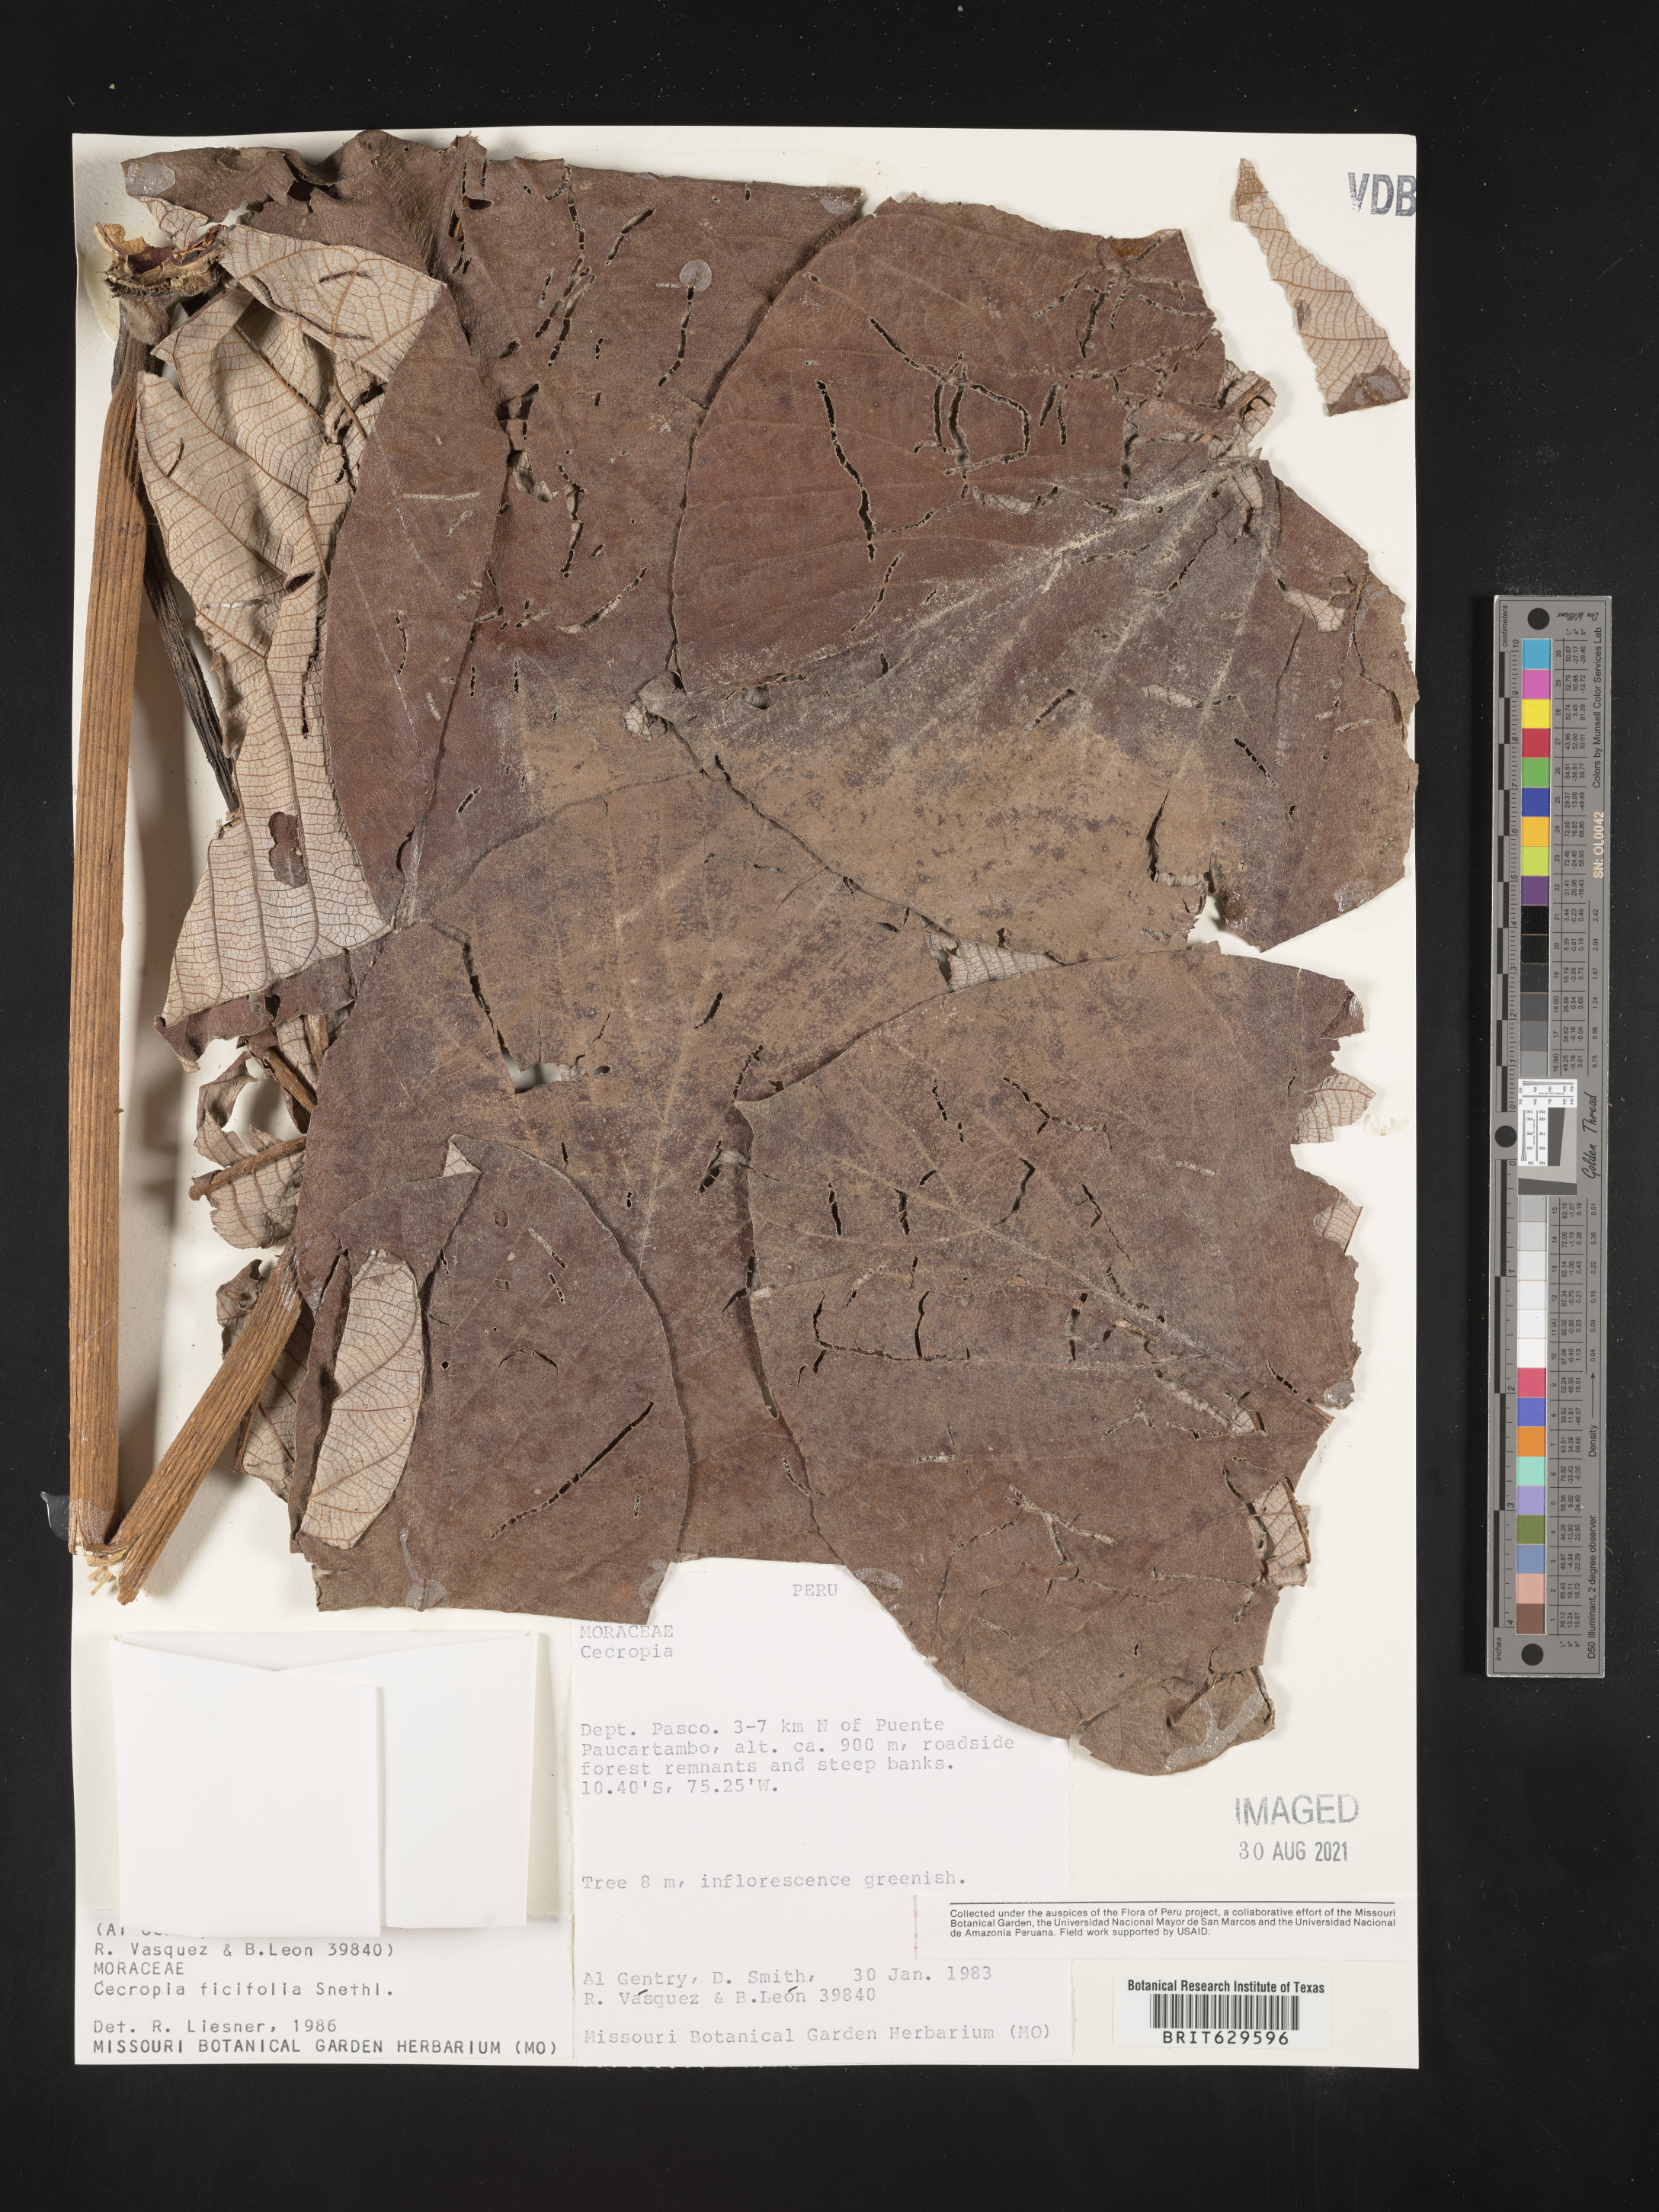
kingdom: Plantae
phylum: Tracheophyta
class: Magnoliopsida
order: Rosales
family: Urticaceae
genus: Cecropia
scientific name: Cecropia
